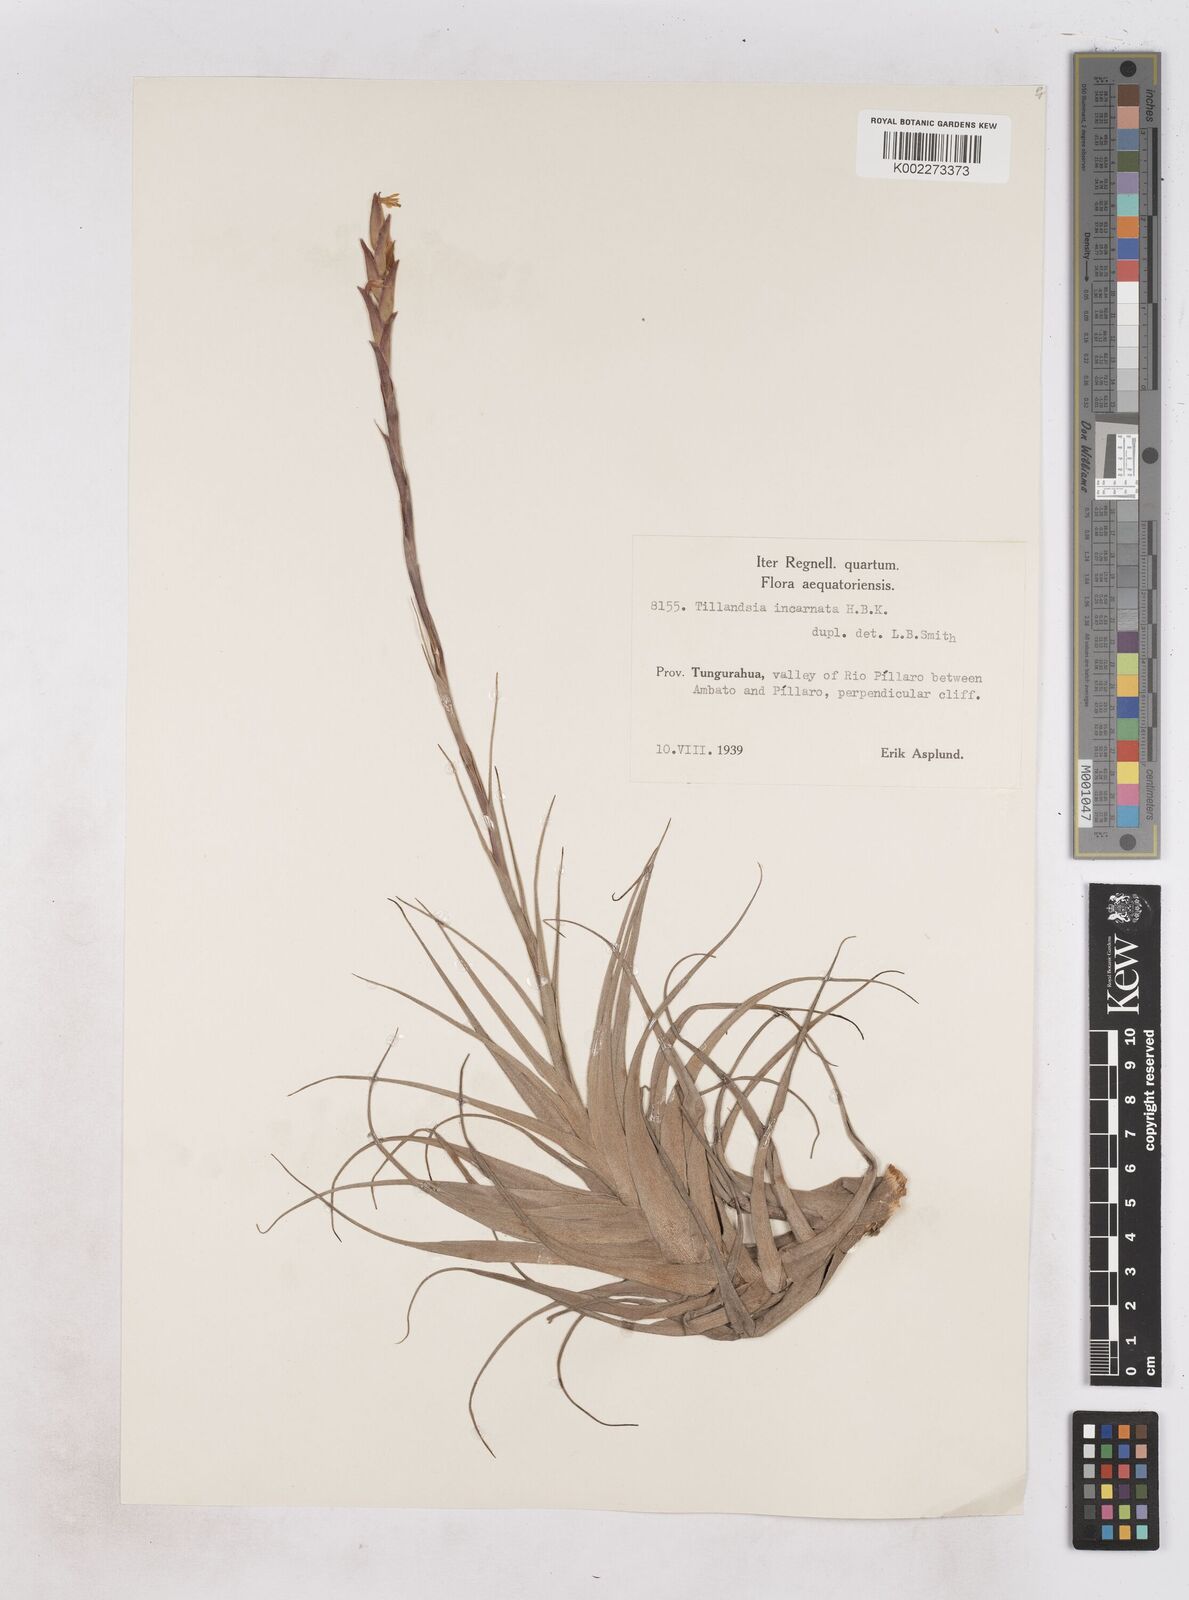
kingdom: Plantae
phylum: Tracheophyta
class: Liliopsida
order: Poales
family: Bromeliaceae
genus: Tillandsia
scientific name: Tillandsia incarnata
